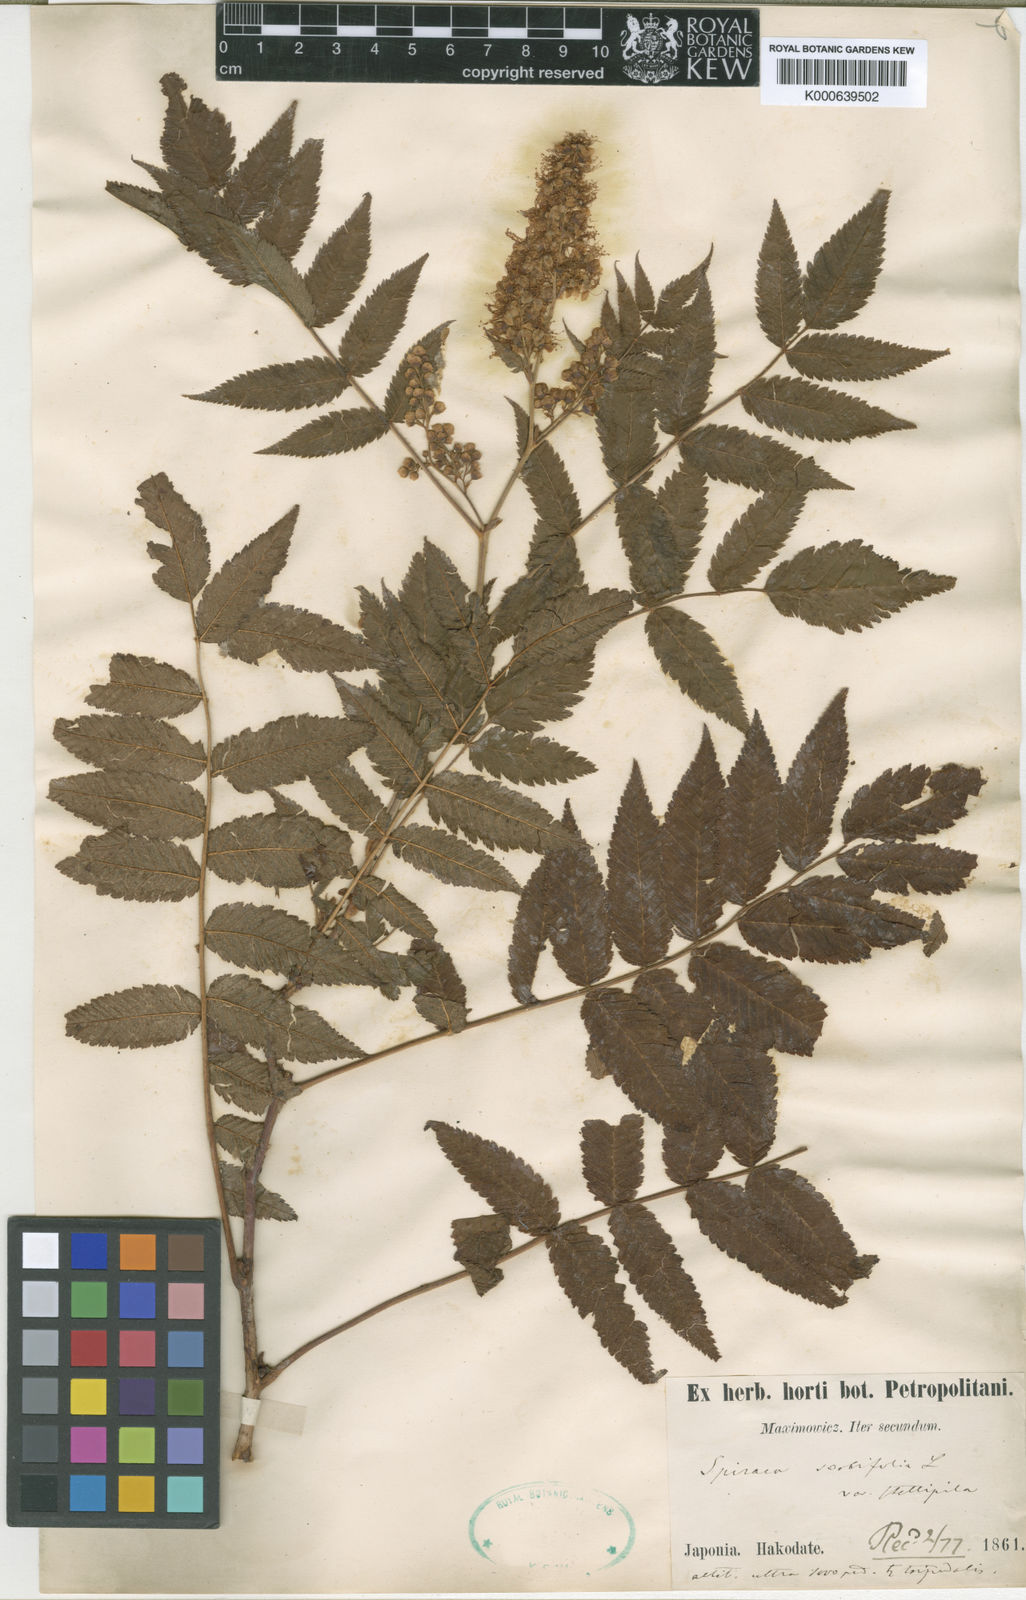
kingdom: Plantae
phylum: Tracheophyta
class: Magnoliopsida
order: Rosales
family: Rosaceae
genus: Sorbaria
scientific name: Sorbaria sorbifolia
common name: False spiraea
